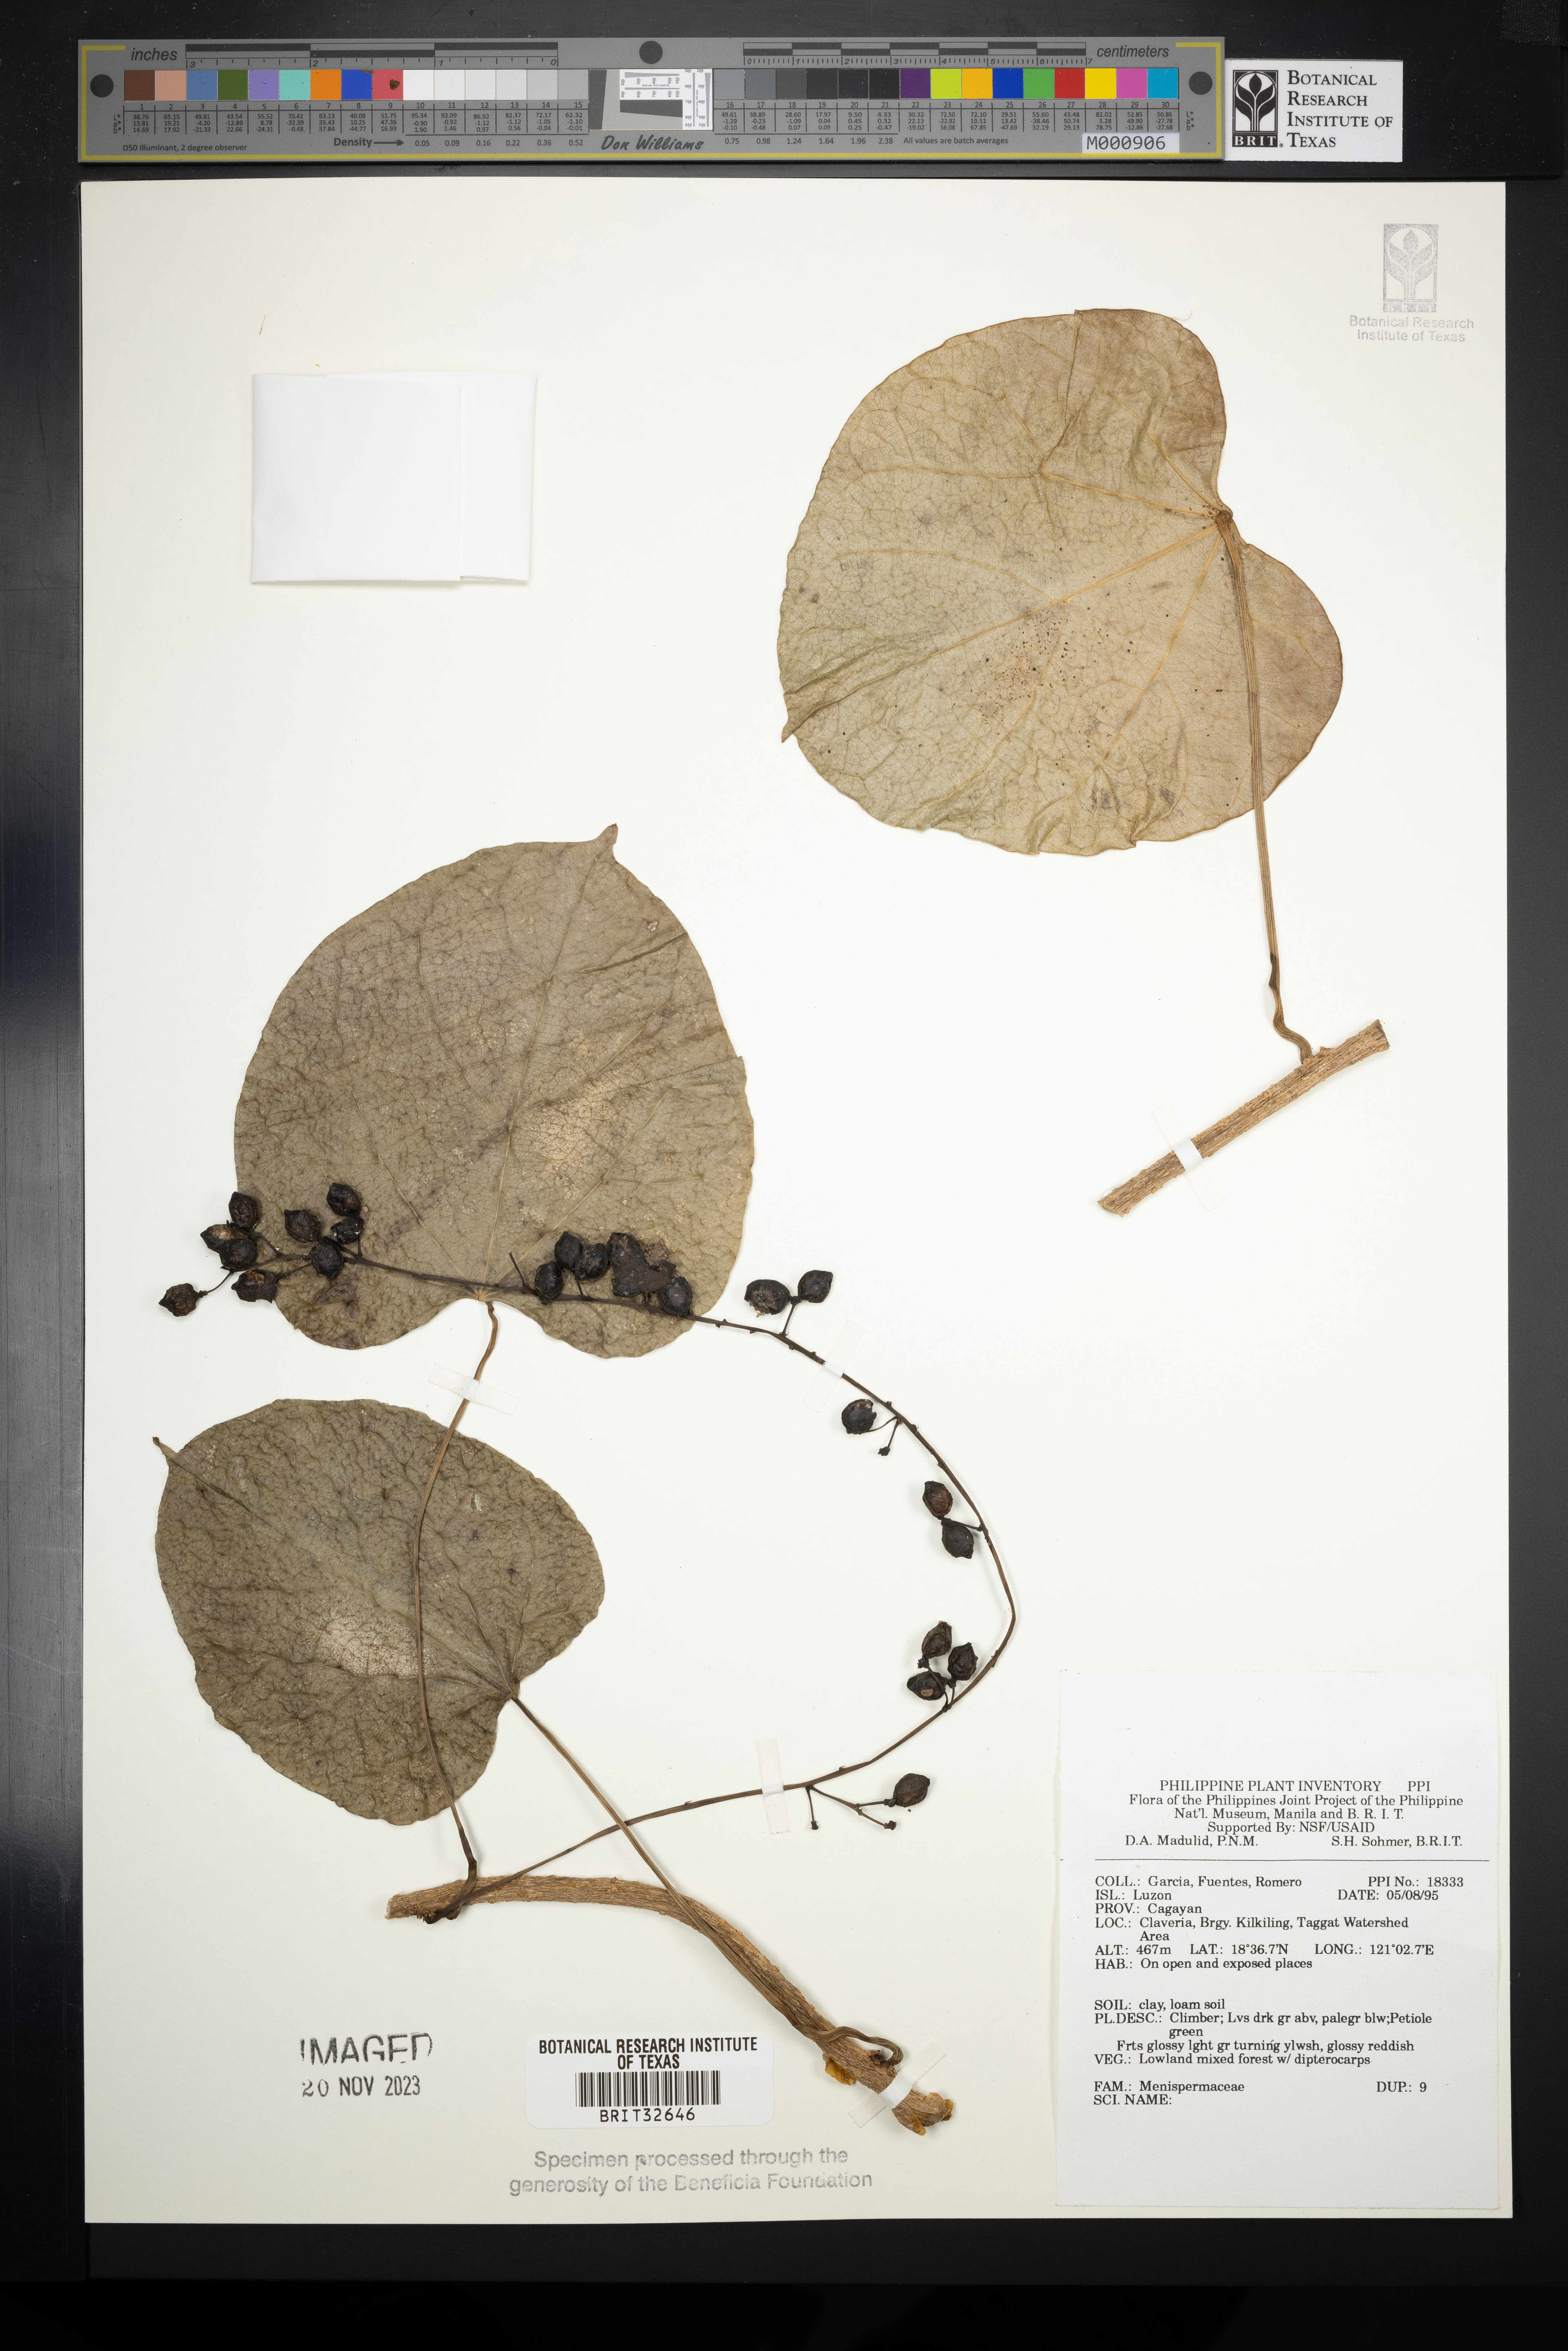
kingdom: Plantae
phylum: Tracheophyta
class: Magnoliopsida
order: Ranunculales
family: Menispermaceae
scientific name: Menispermaceae
